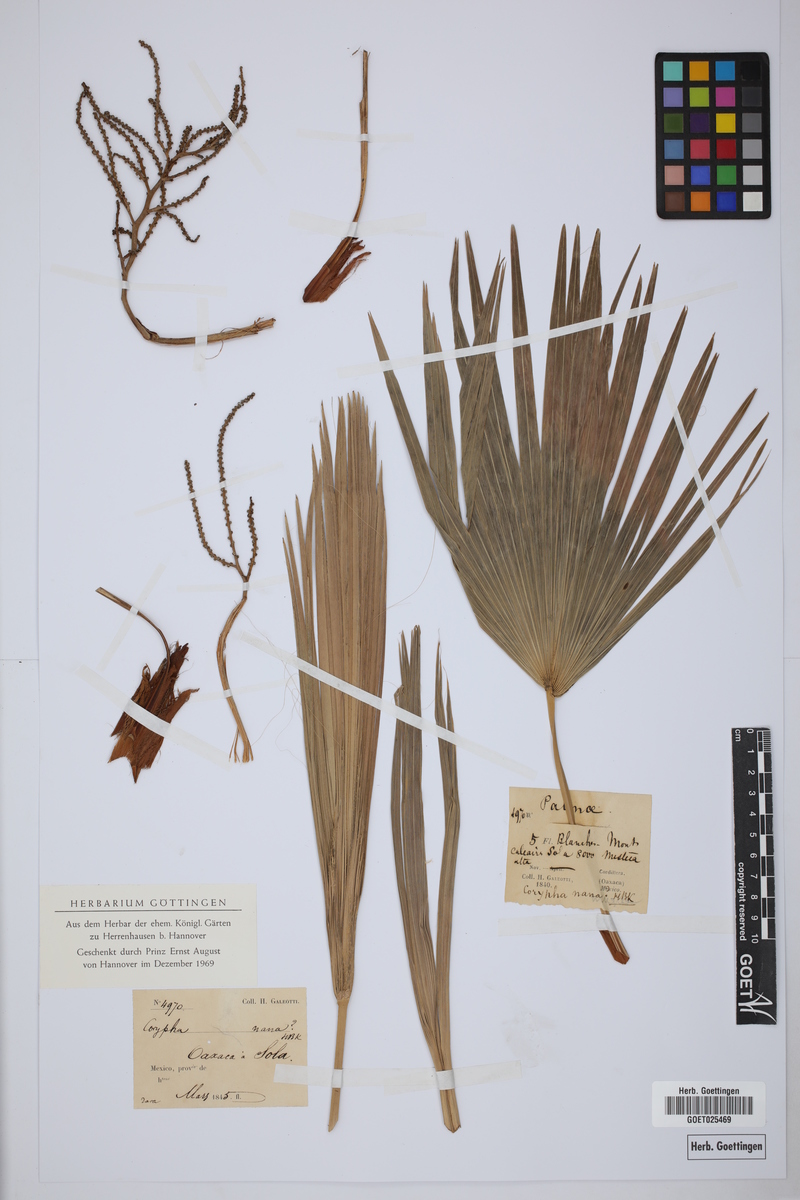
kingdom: Plantae
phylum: Tracheophyta
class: Liliopsida
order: Arecales
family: Arecaceae
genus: Cryosophila
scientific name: Cryosophila nana
